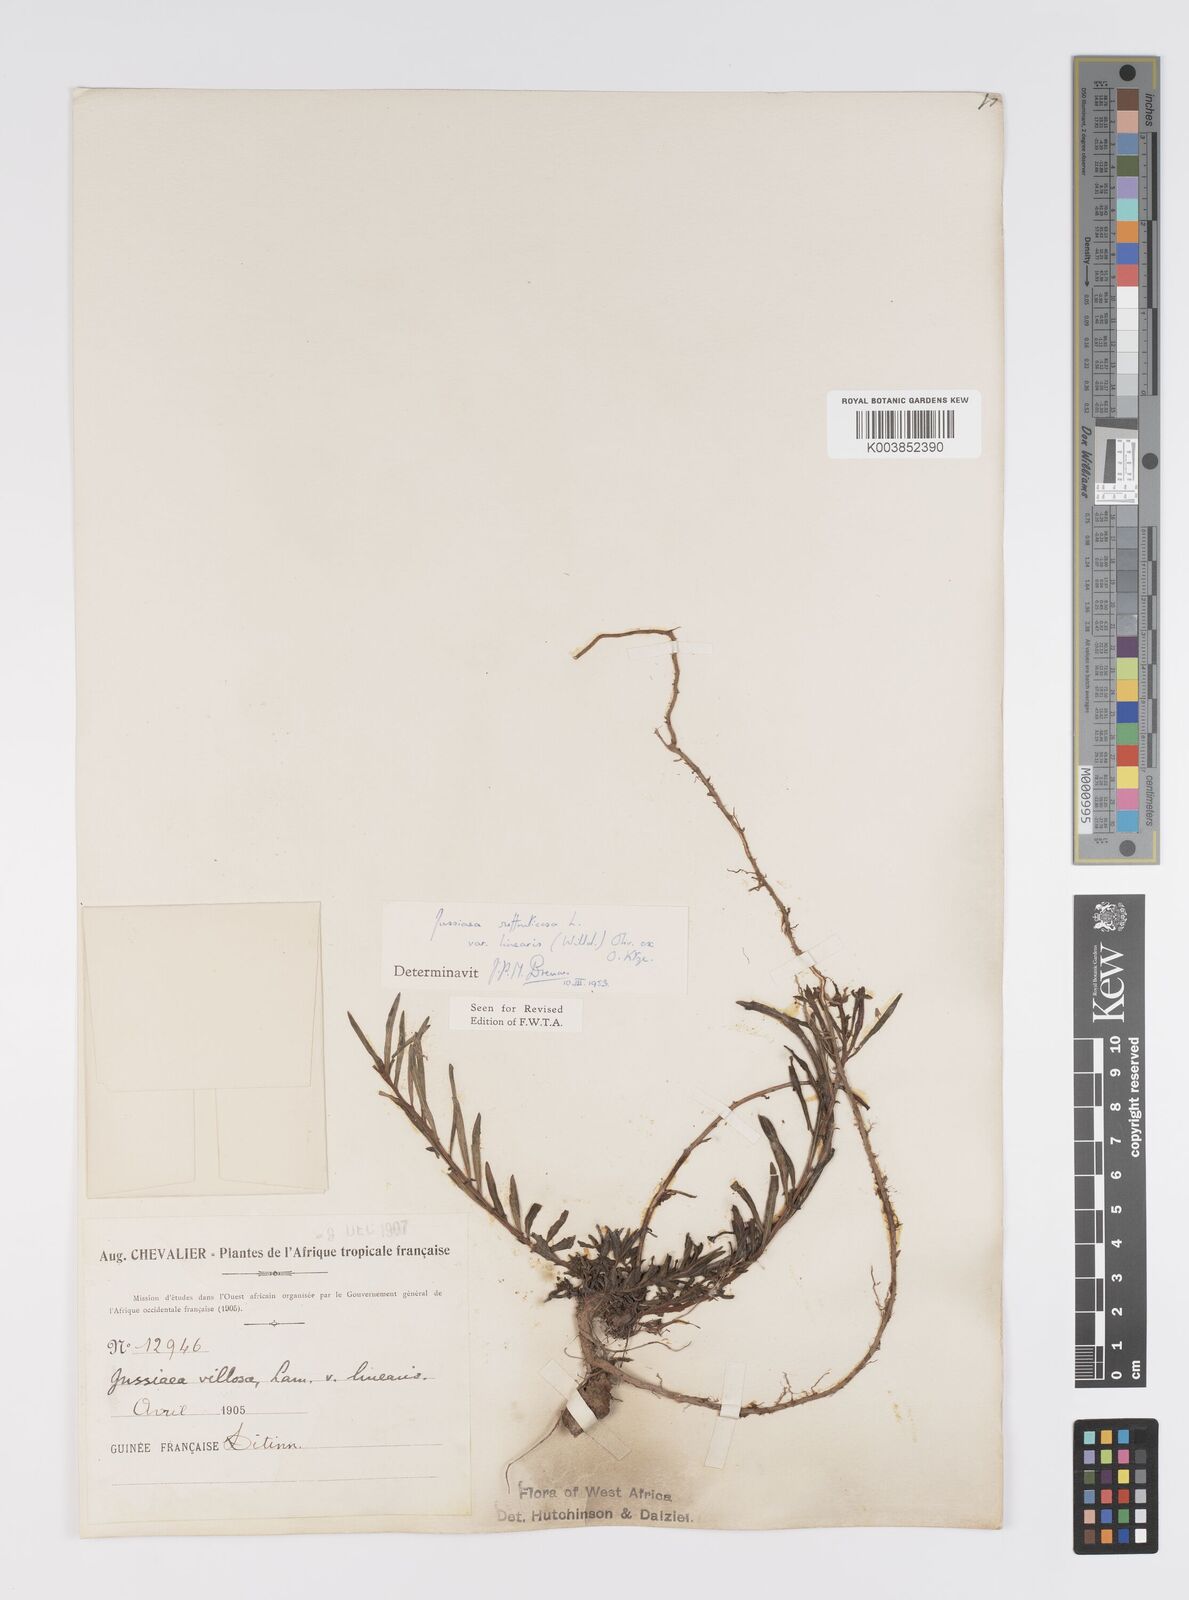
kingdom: Plantae
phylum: Tracheophyta
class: Magnoliopsida
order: Myrtales
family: Onagraceae
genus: Ludwigia
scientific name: Ludwigia suffruticosa
